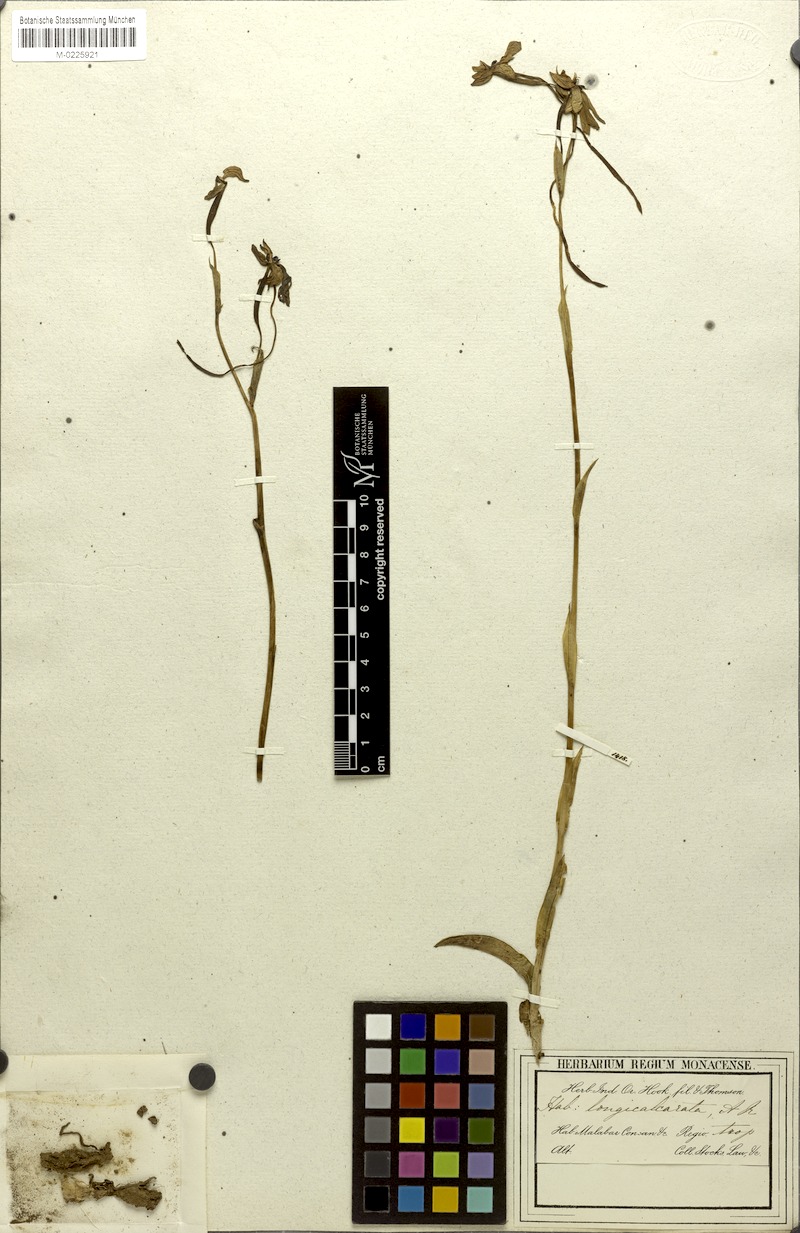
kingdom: Plantae
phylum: Tracheophyta
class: Liliopsida
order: Asparagales
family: Orchidaceae
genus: Habenaria
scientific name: Habenaria longicorniculata
